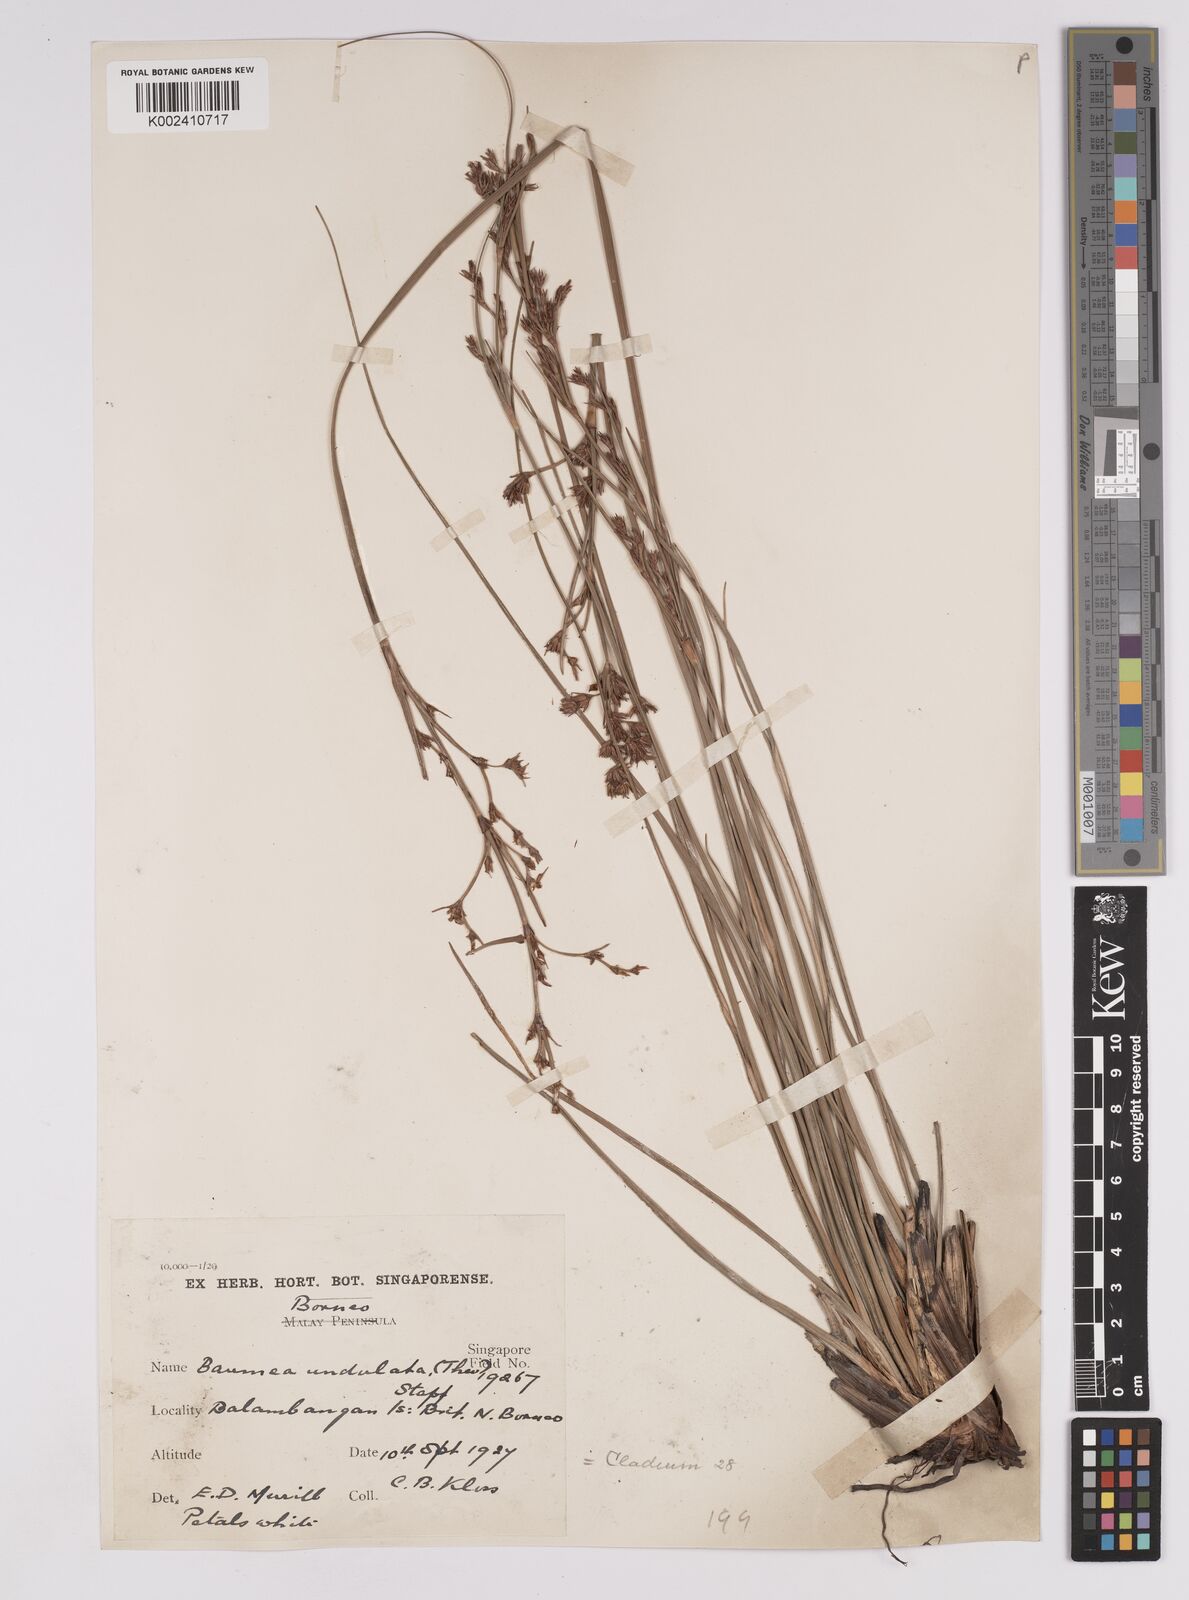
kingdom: Plantae
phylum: Tracheophyta
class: Liliopsida
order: Poales
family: Cyperaceae
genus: Anthelepis
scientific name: Anthelepis undulata
